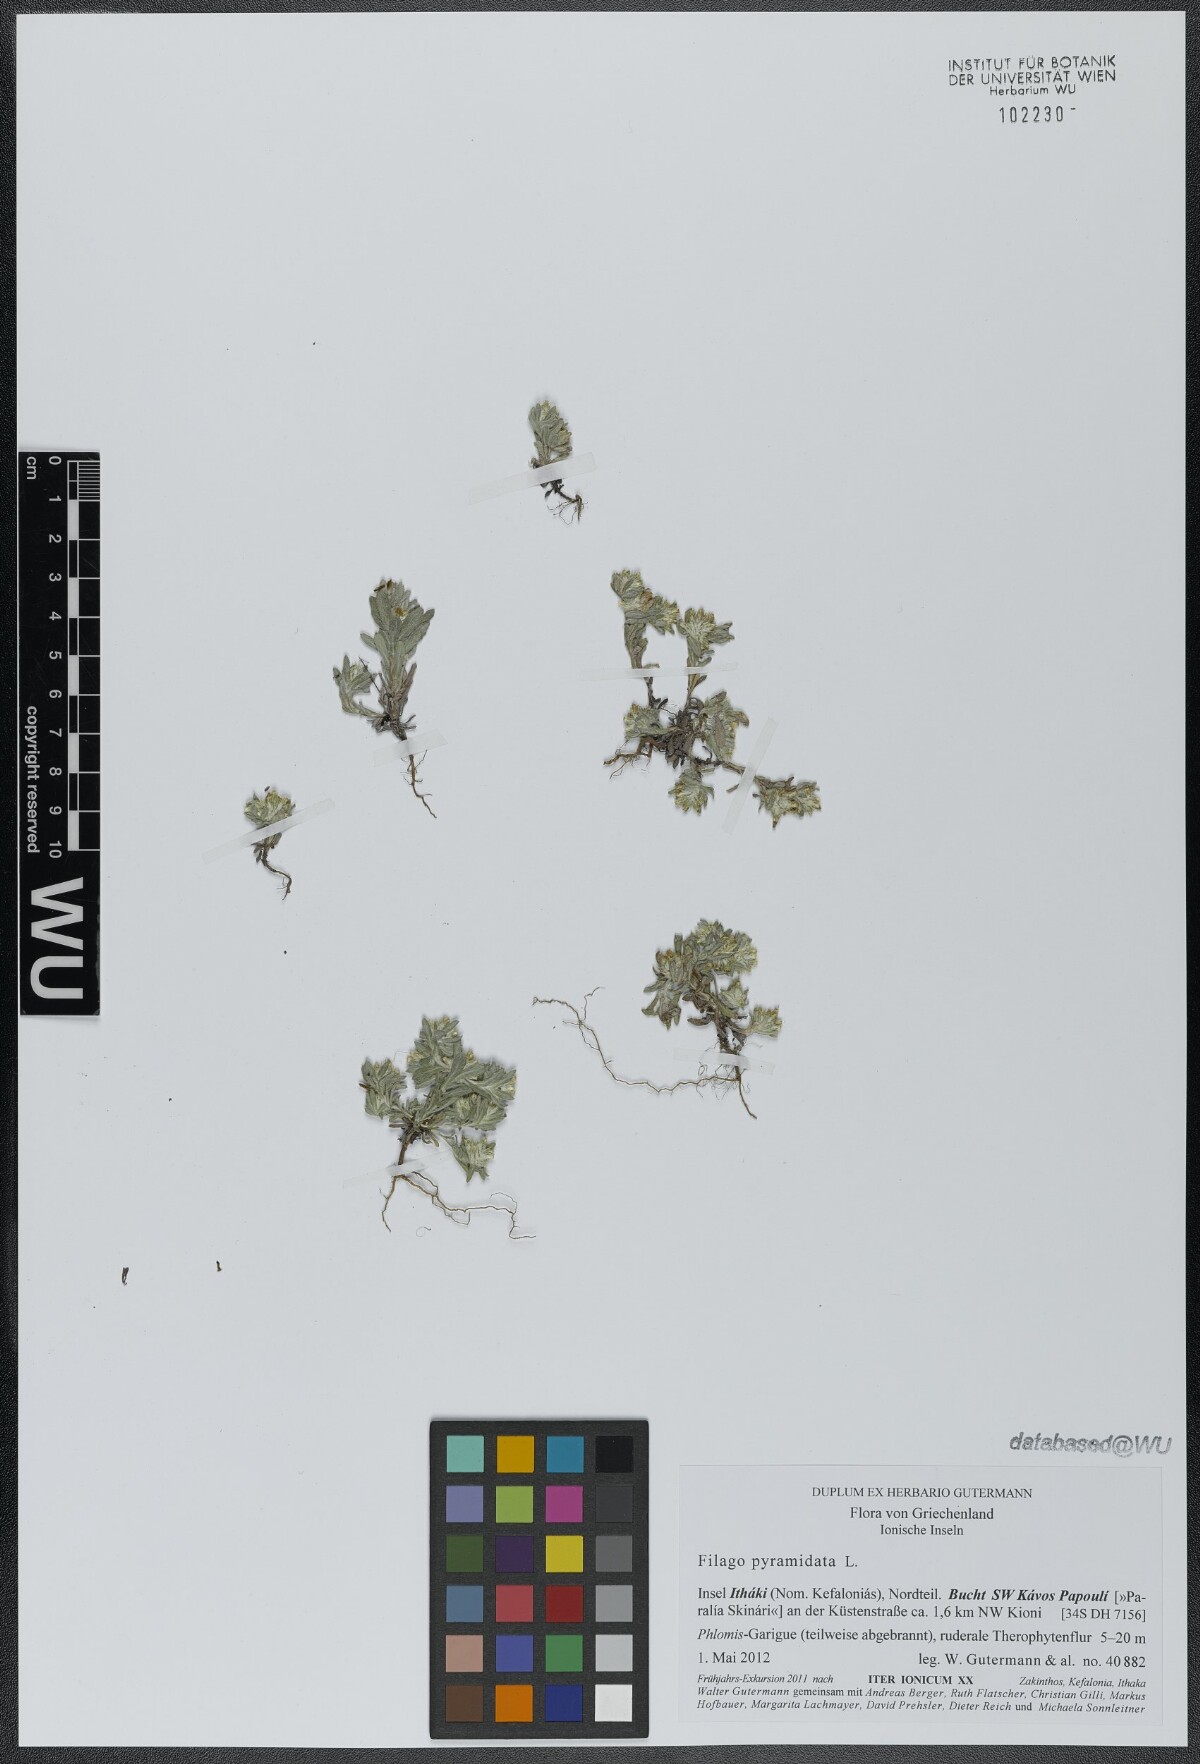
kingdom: Plantae
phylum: Tracheophyta
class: Magnoliopsida
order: Asterales
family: Asteraceae
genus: Filago
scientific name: Filago pyramidata
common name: Broad-leaved cudweed
